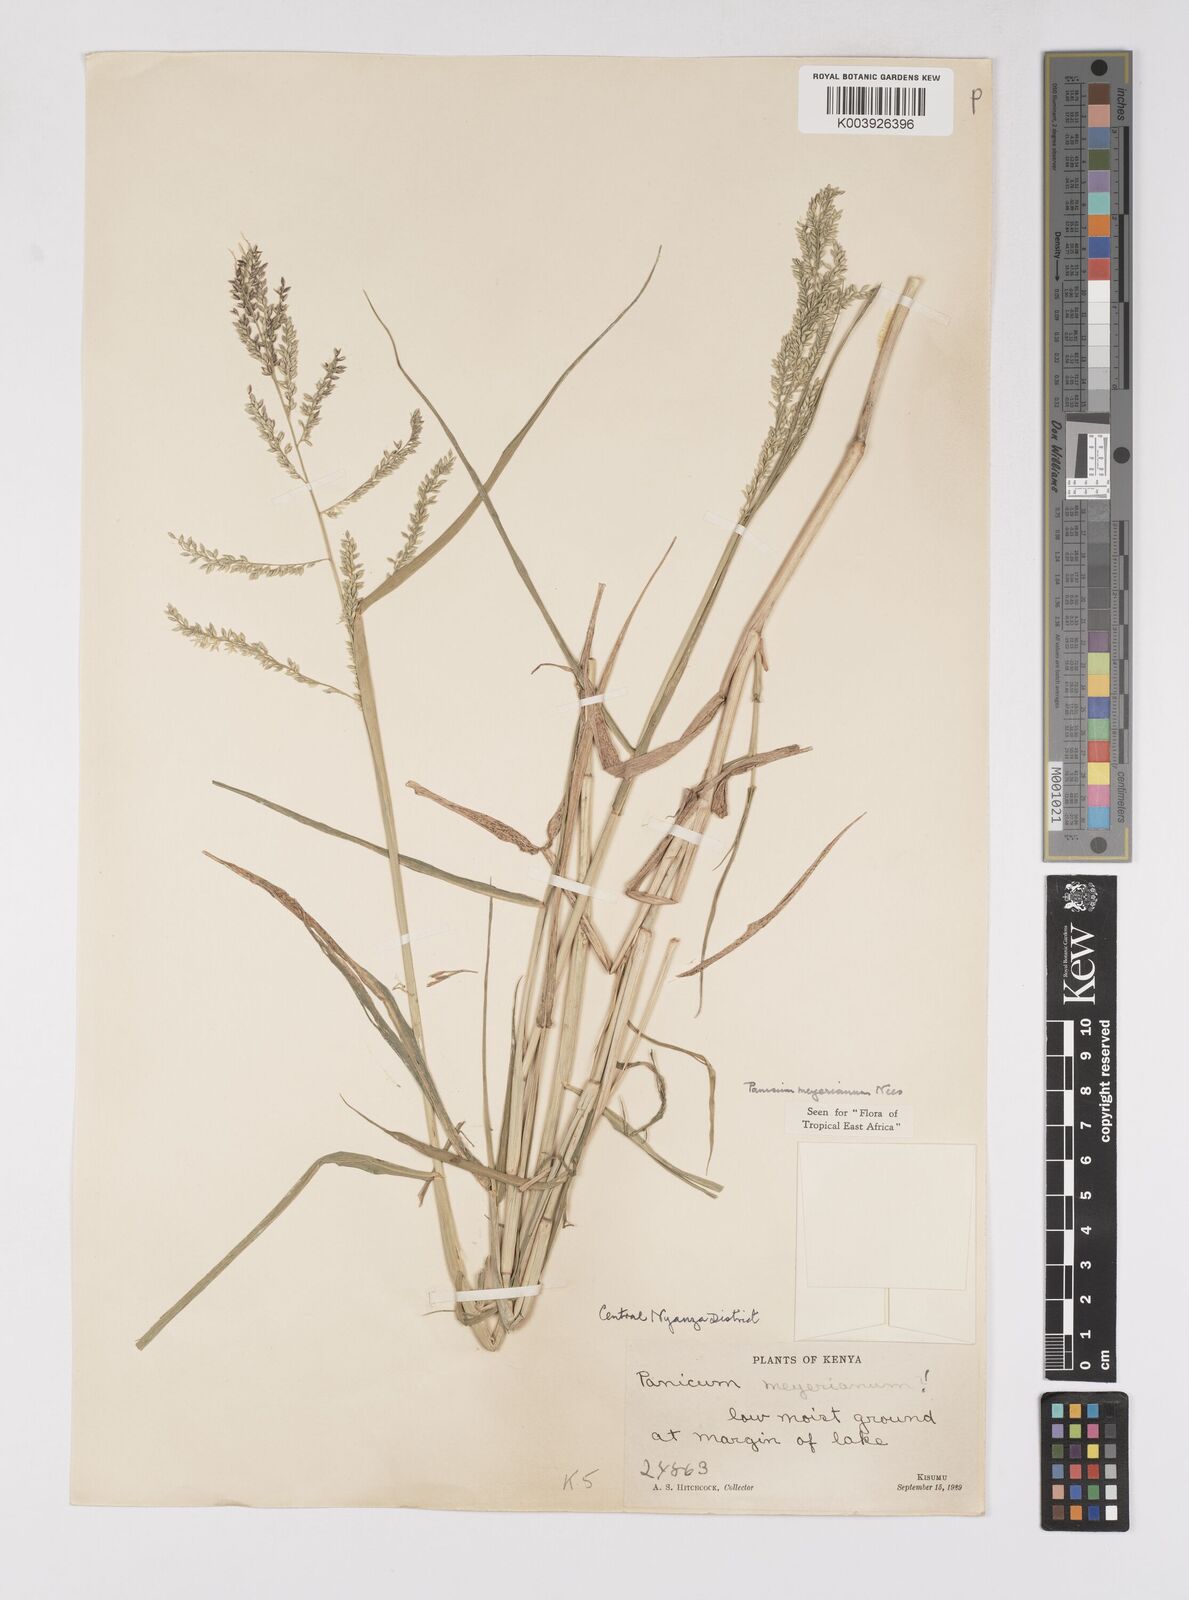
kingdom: Plantae
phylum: Tracheophyta
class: Liliopsida
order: Poales
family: Poaceae
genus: Eriochloa
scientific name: Eriochloa meyeriana
